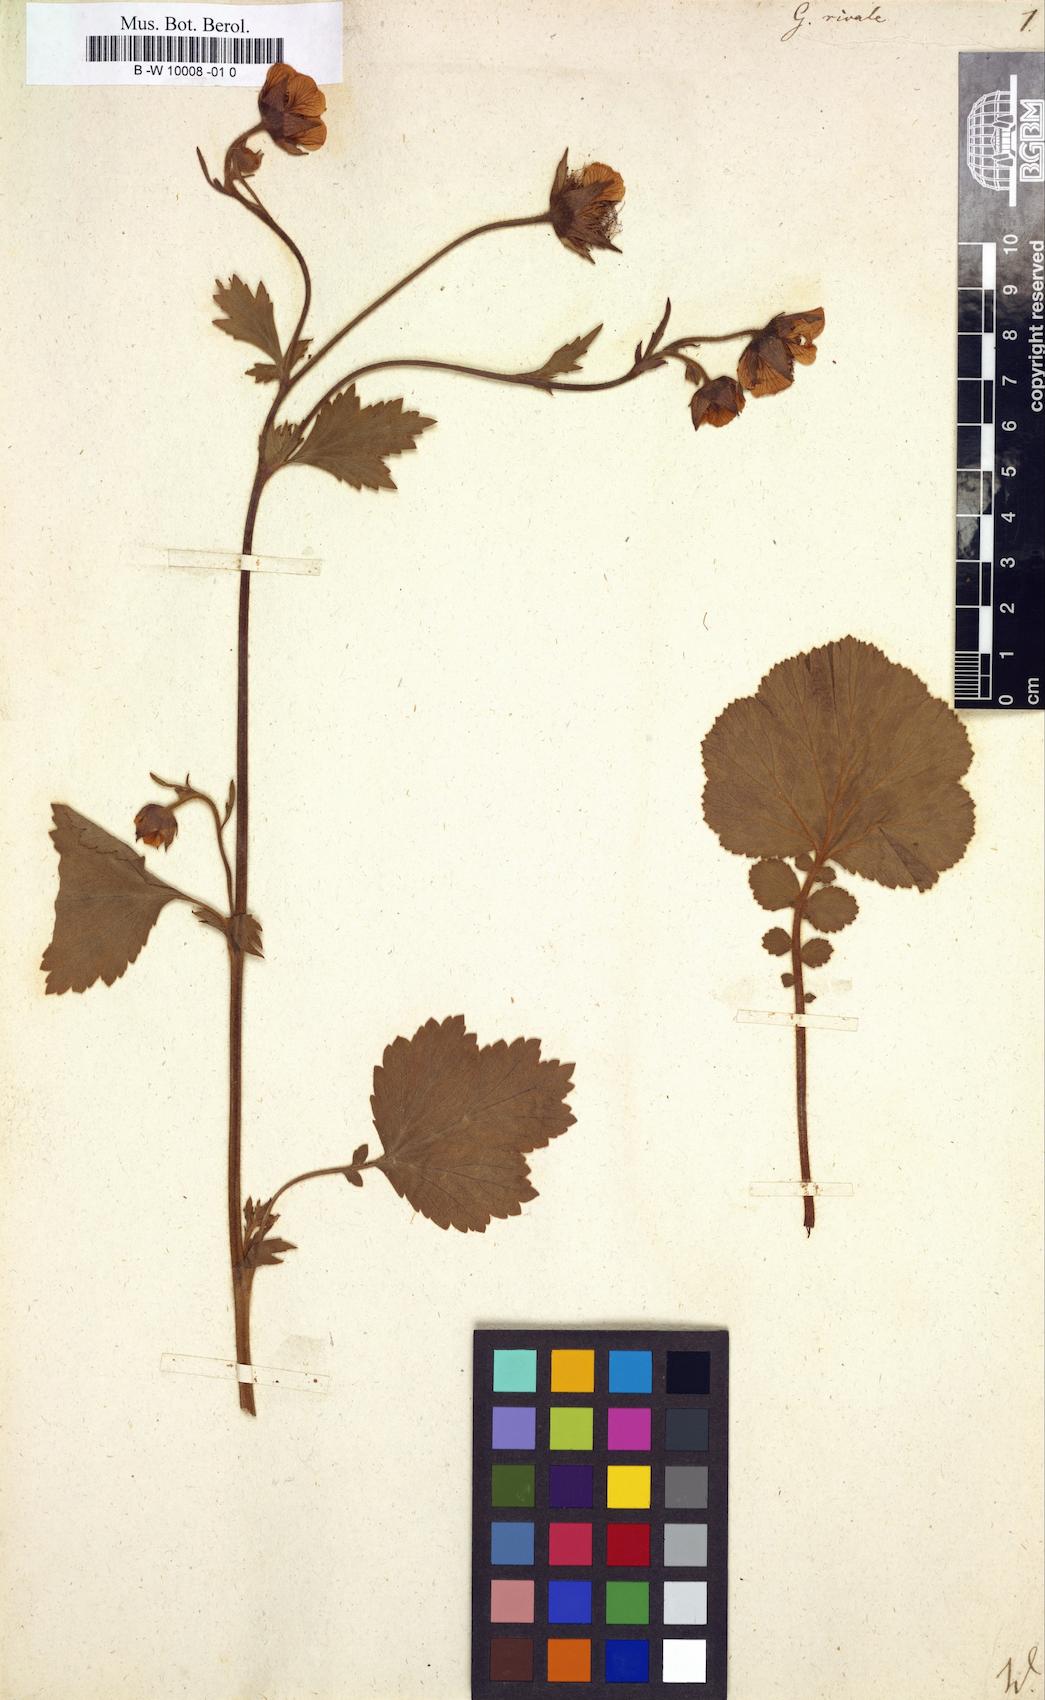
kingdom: Plantae
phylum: Tracheophyta
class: Magnoliopsida
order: Rosales
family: Rosaceae
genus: Geum
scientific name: Geum rivale
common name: Water avens
